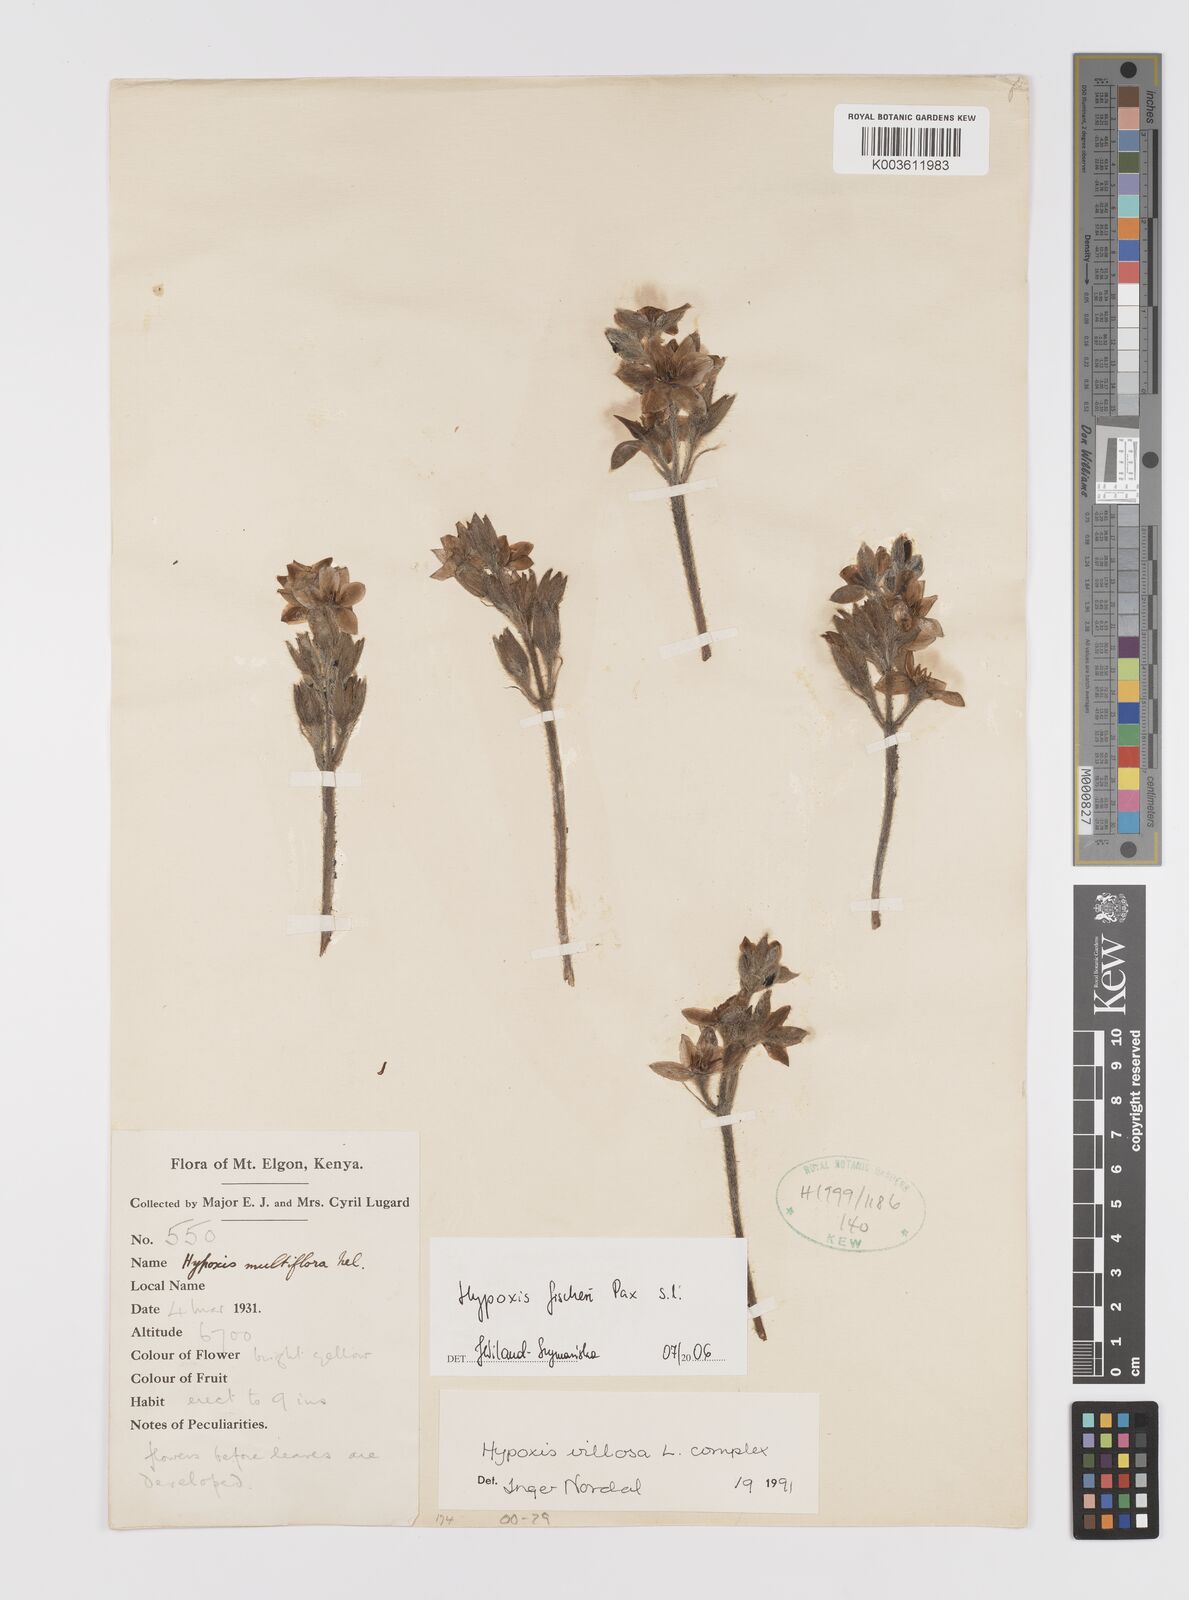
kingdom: Plantae
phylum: Tracheophyta
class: Liliopsida
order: Asparagales
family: Hypoxidaceae
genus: Hypoxis
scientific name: Hypoxis fischeri
